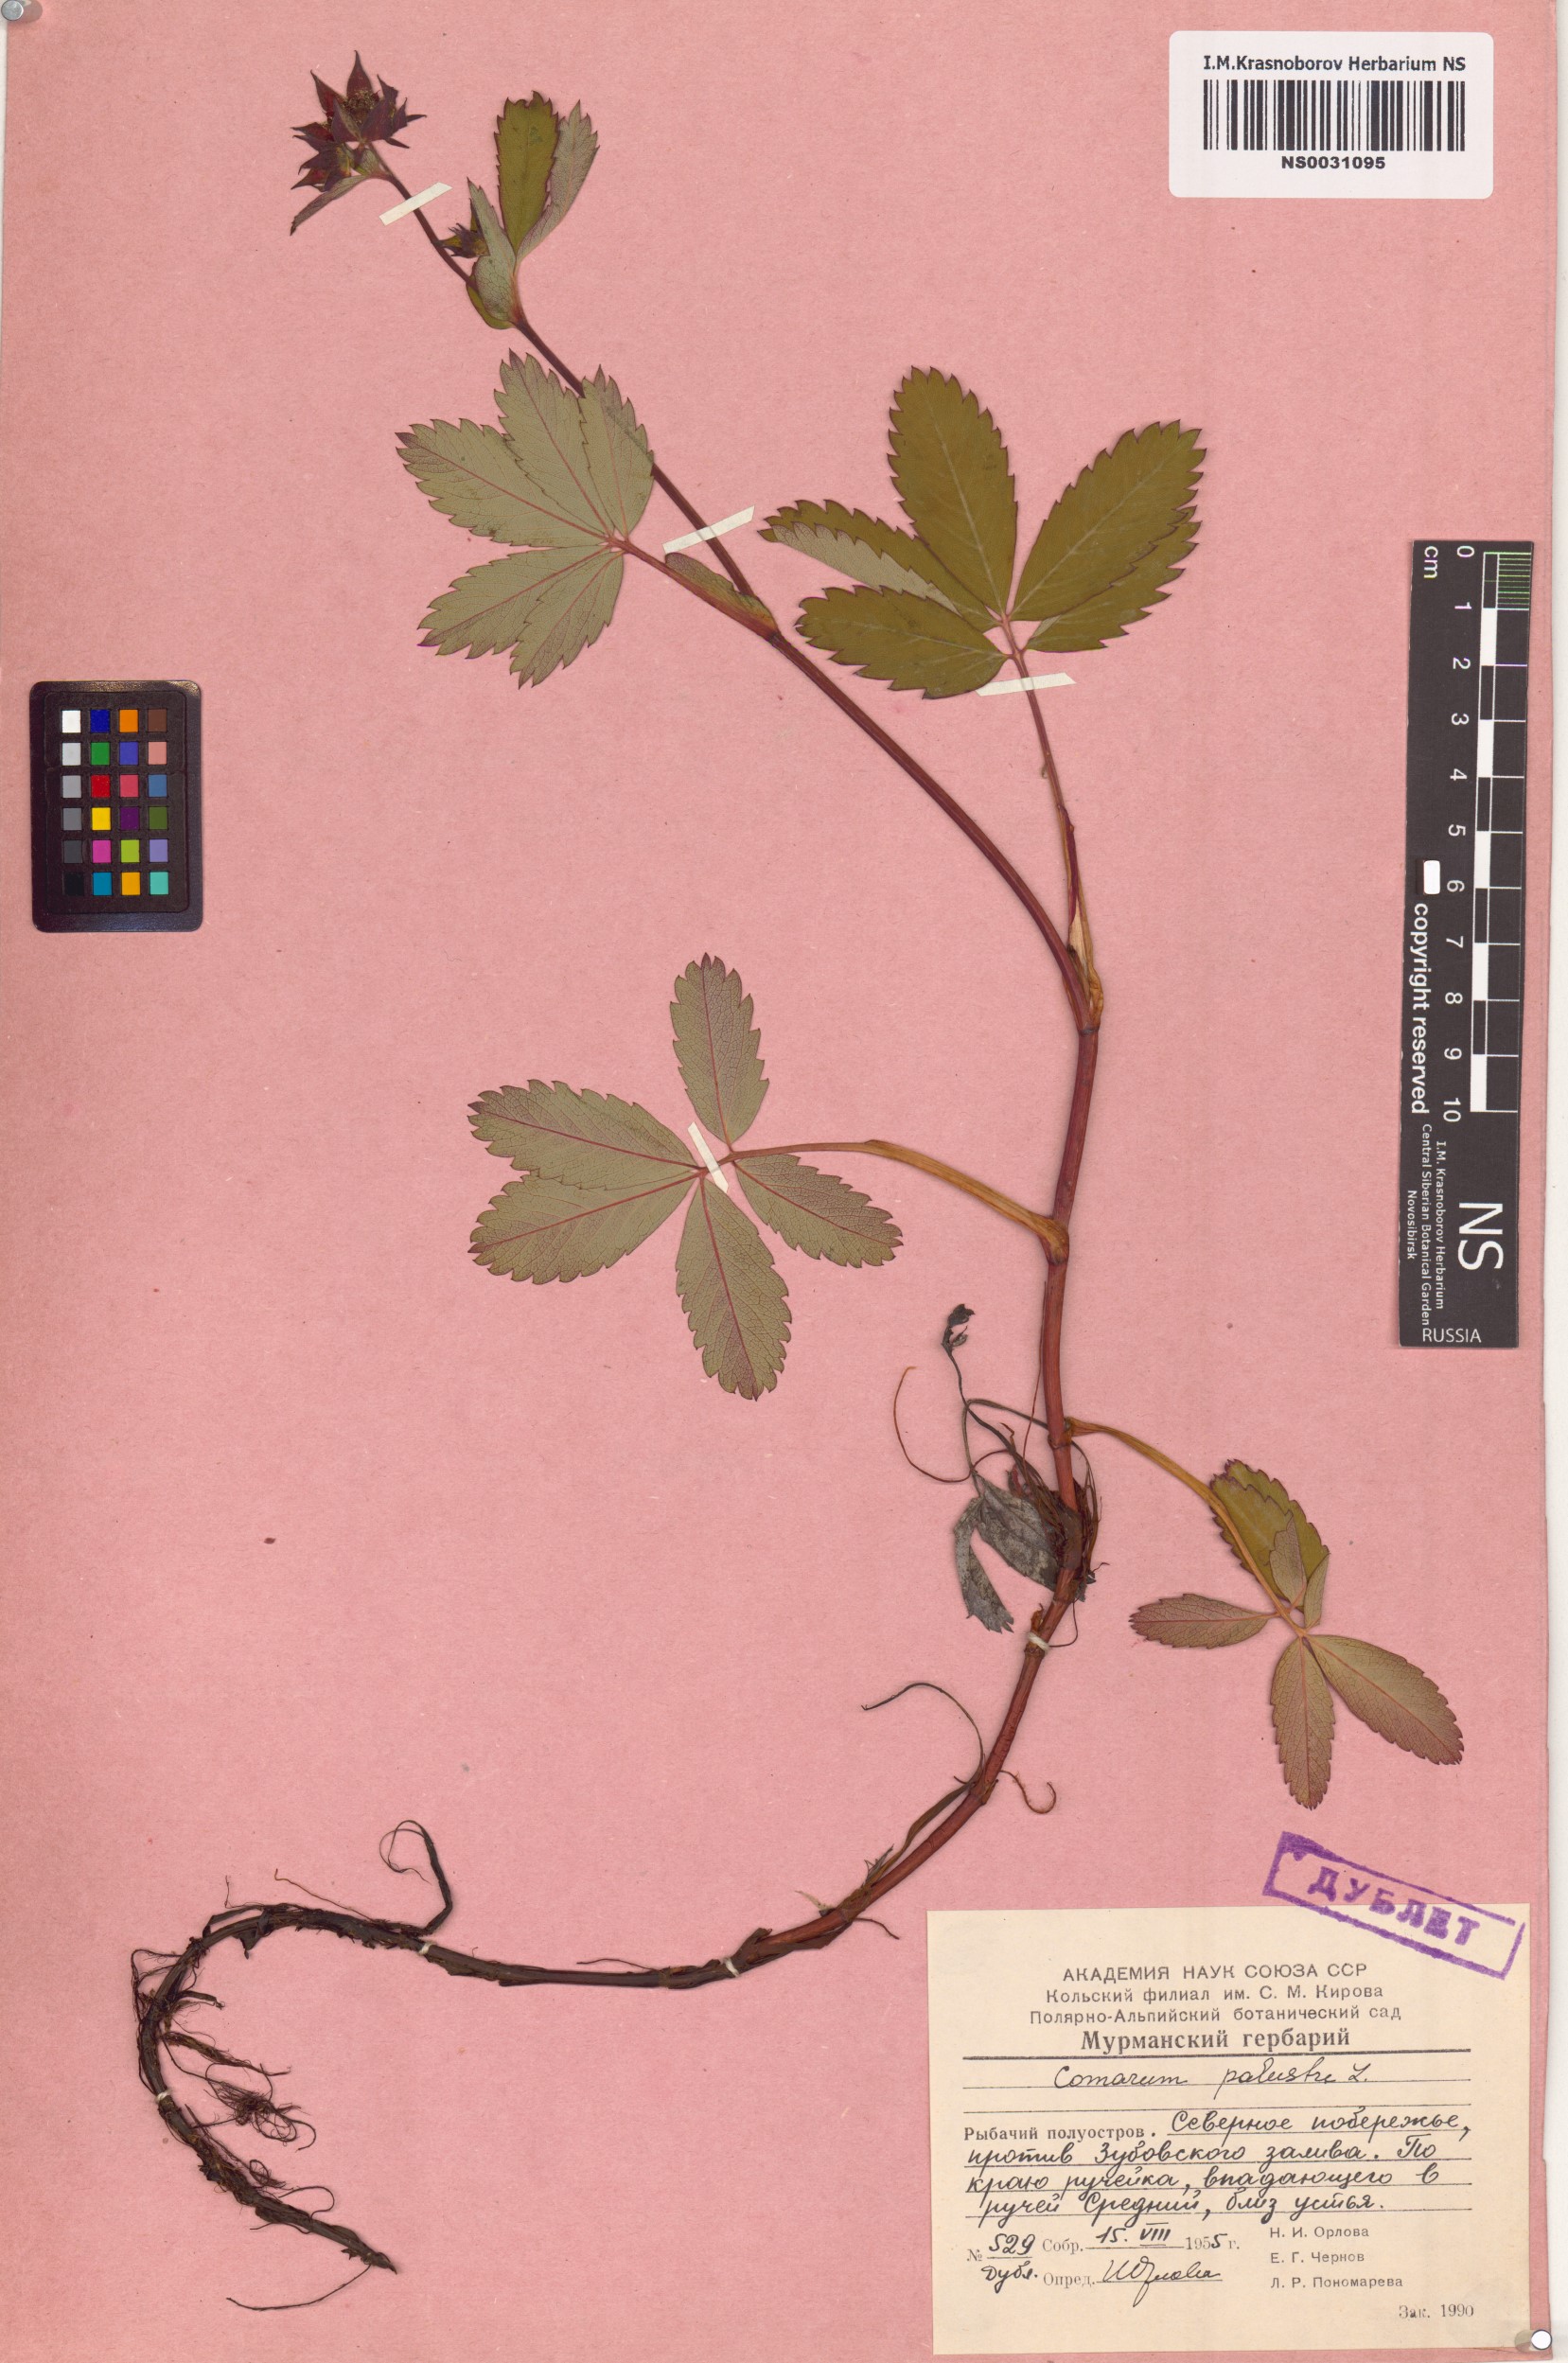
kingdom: Plantae
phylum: Tracheophyta
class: Magnoliopsida
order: Rosales
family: Rosaceae
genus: Comarum
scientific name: Comarum palustre
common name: Marsh cinquefoil
